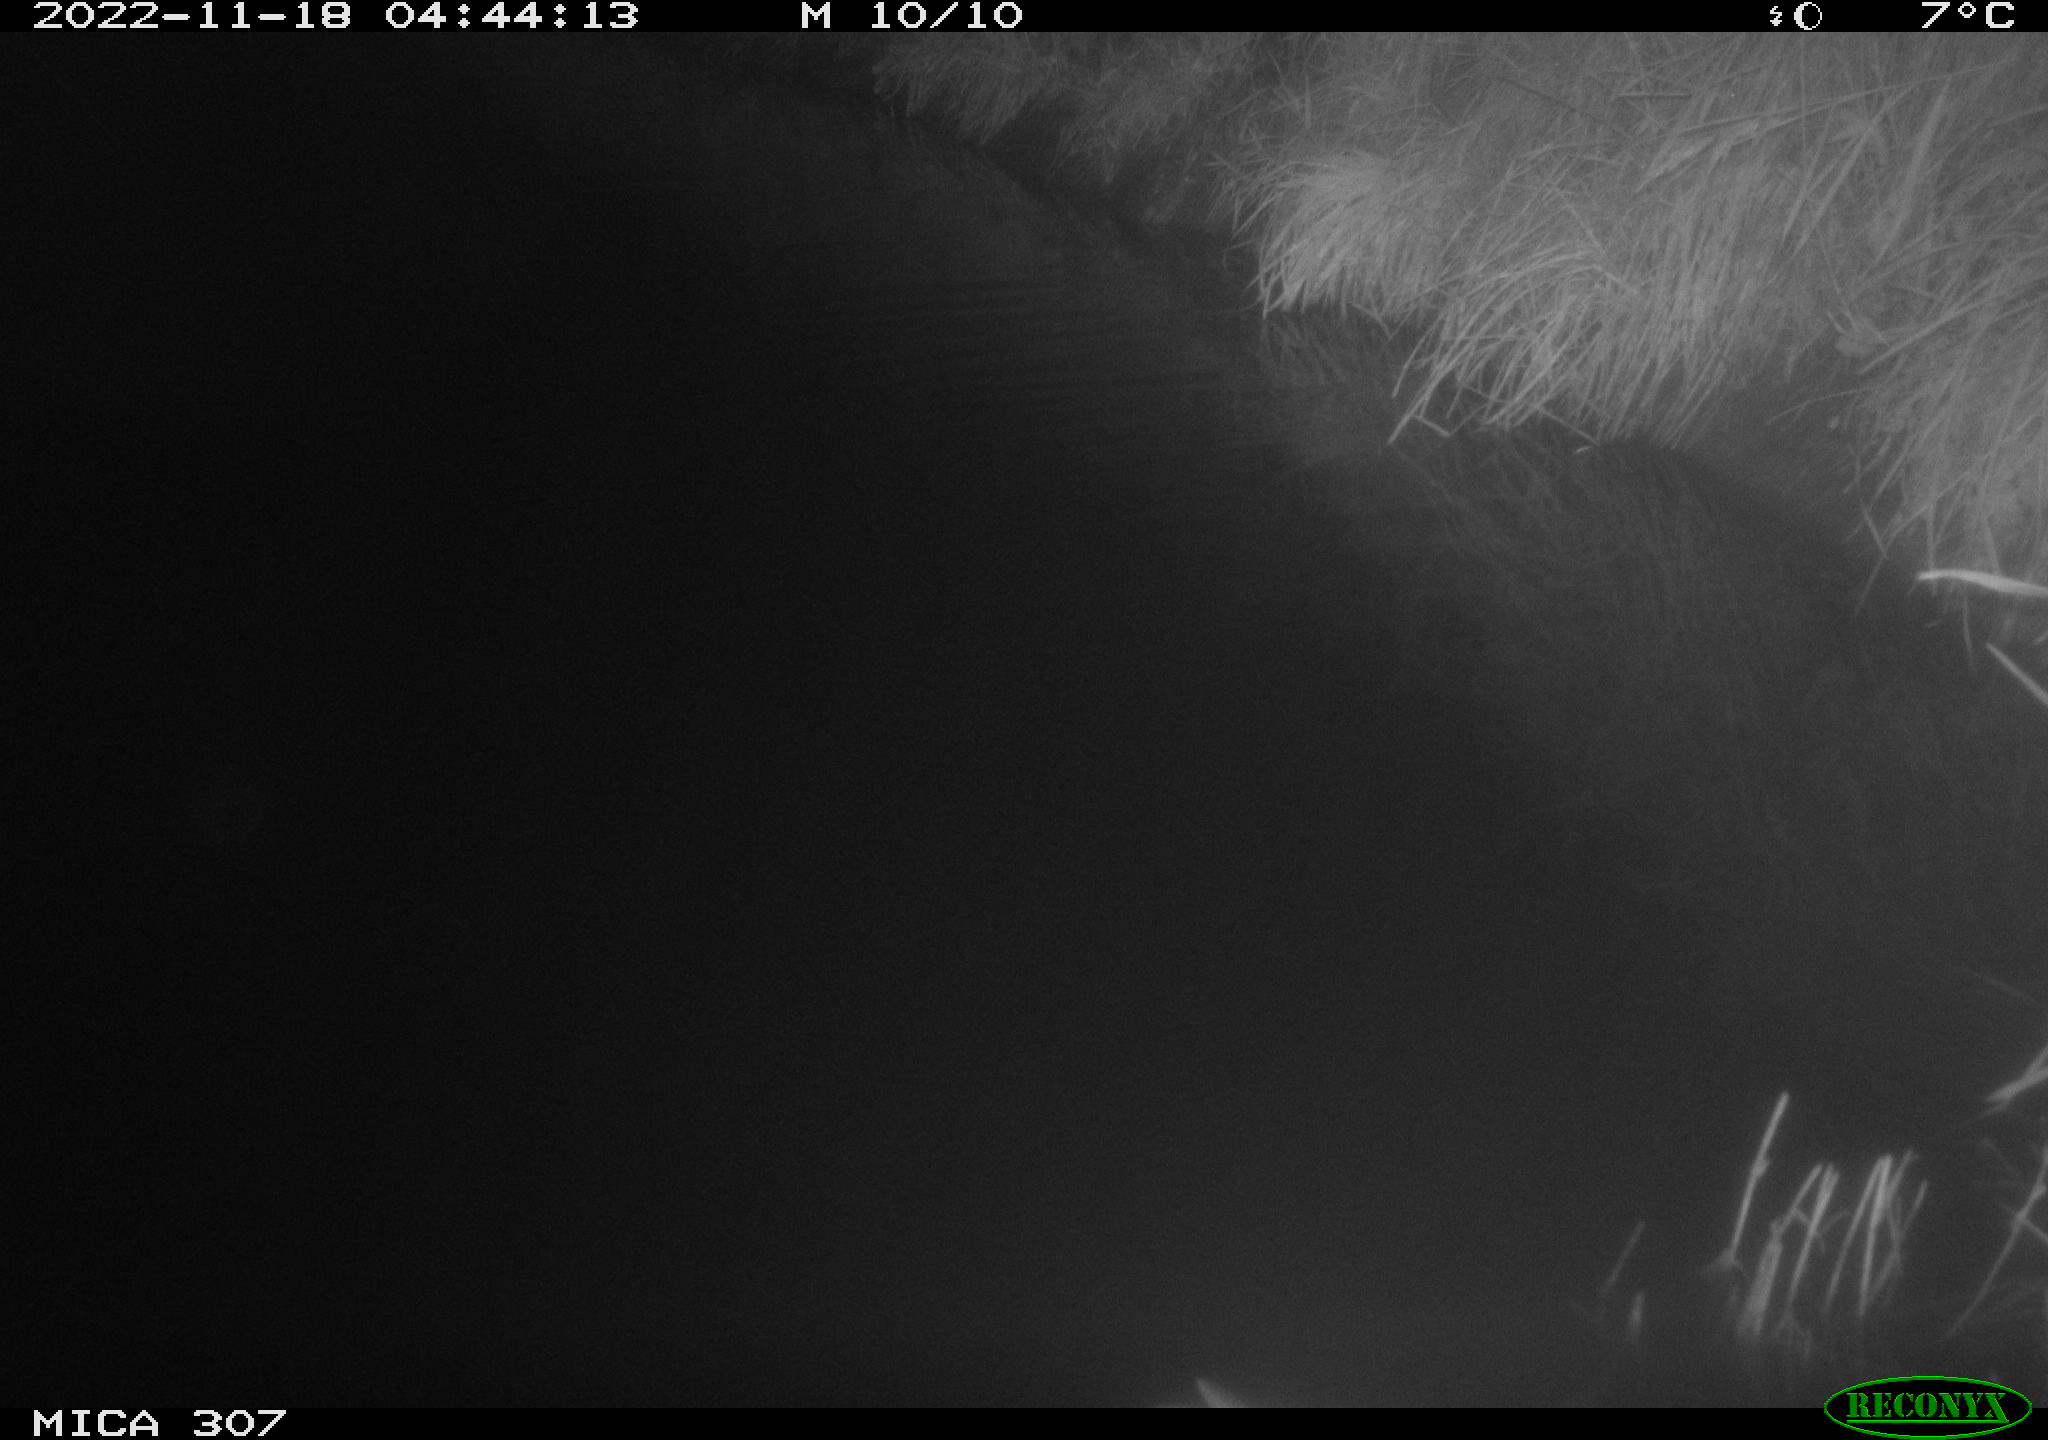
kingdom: Animalia
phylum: Chordata
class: Aves
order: Anseriformes
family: Anatidae
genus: Anas
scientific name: Anas
